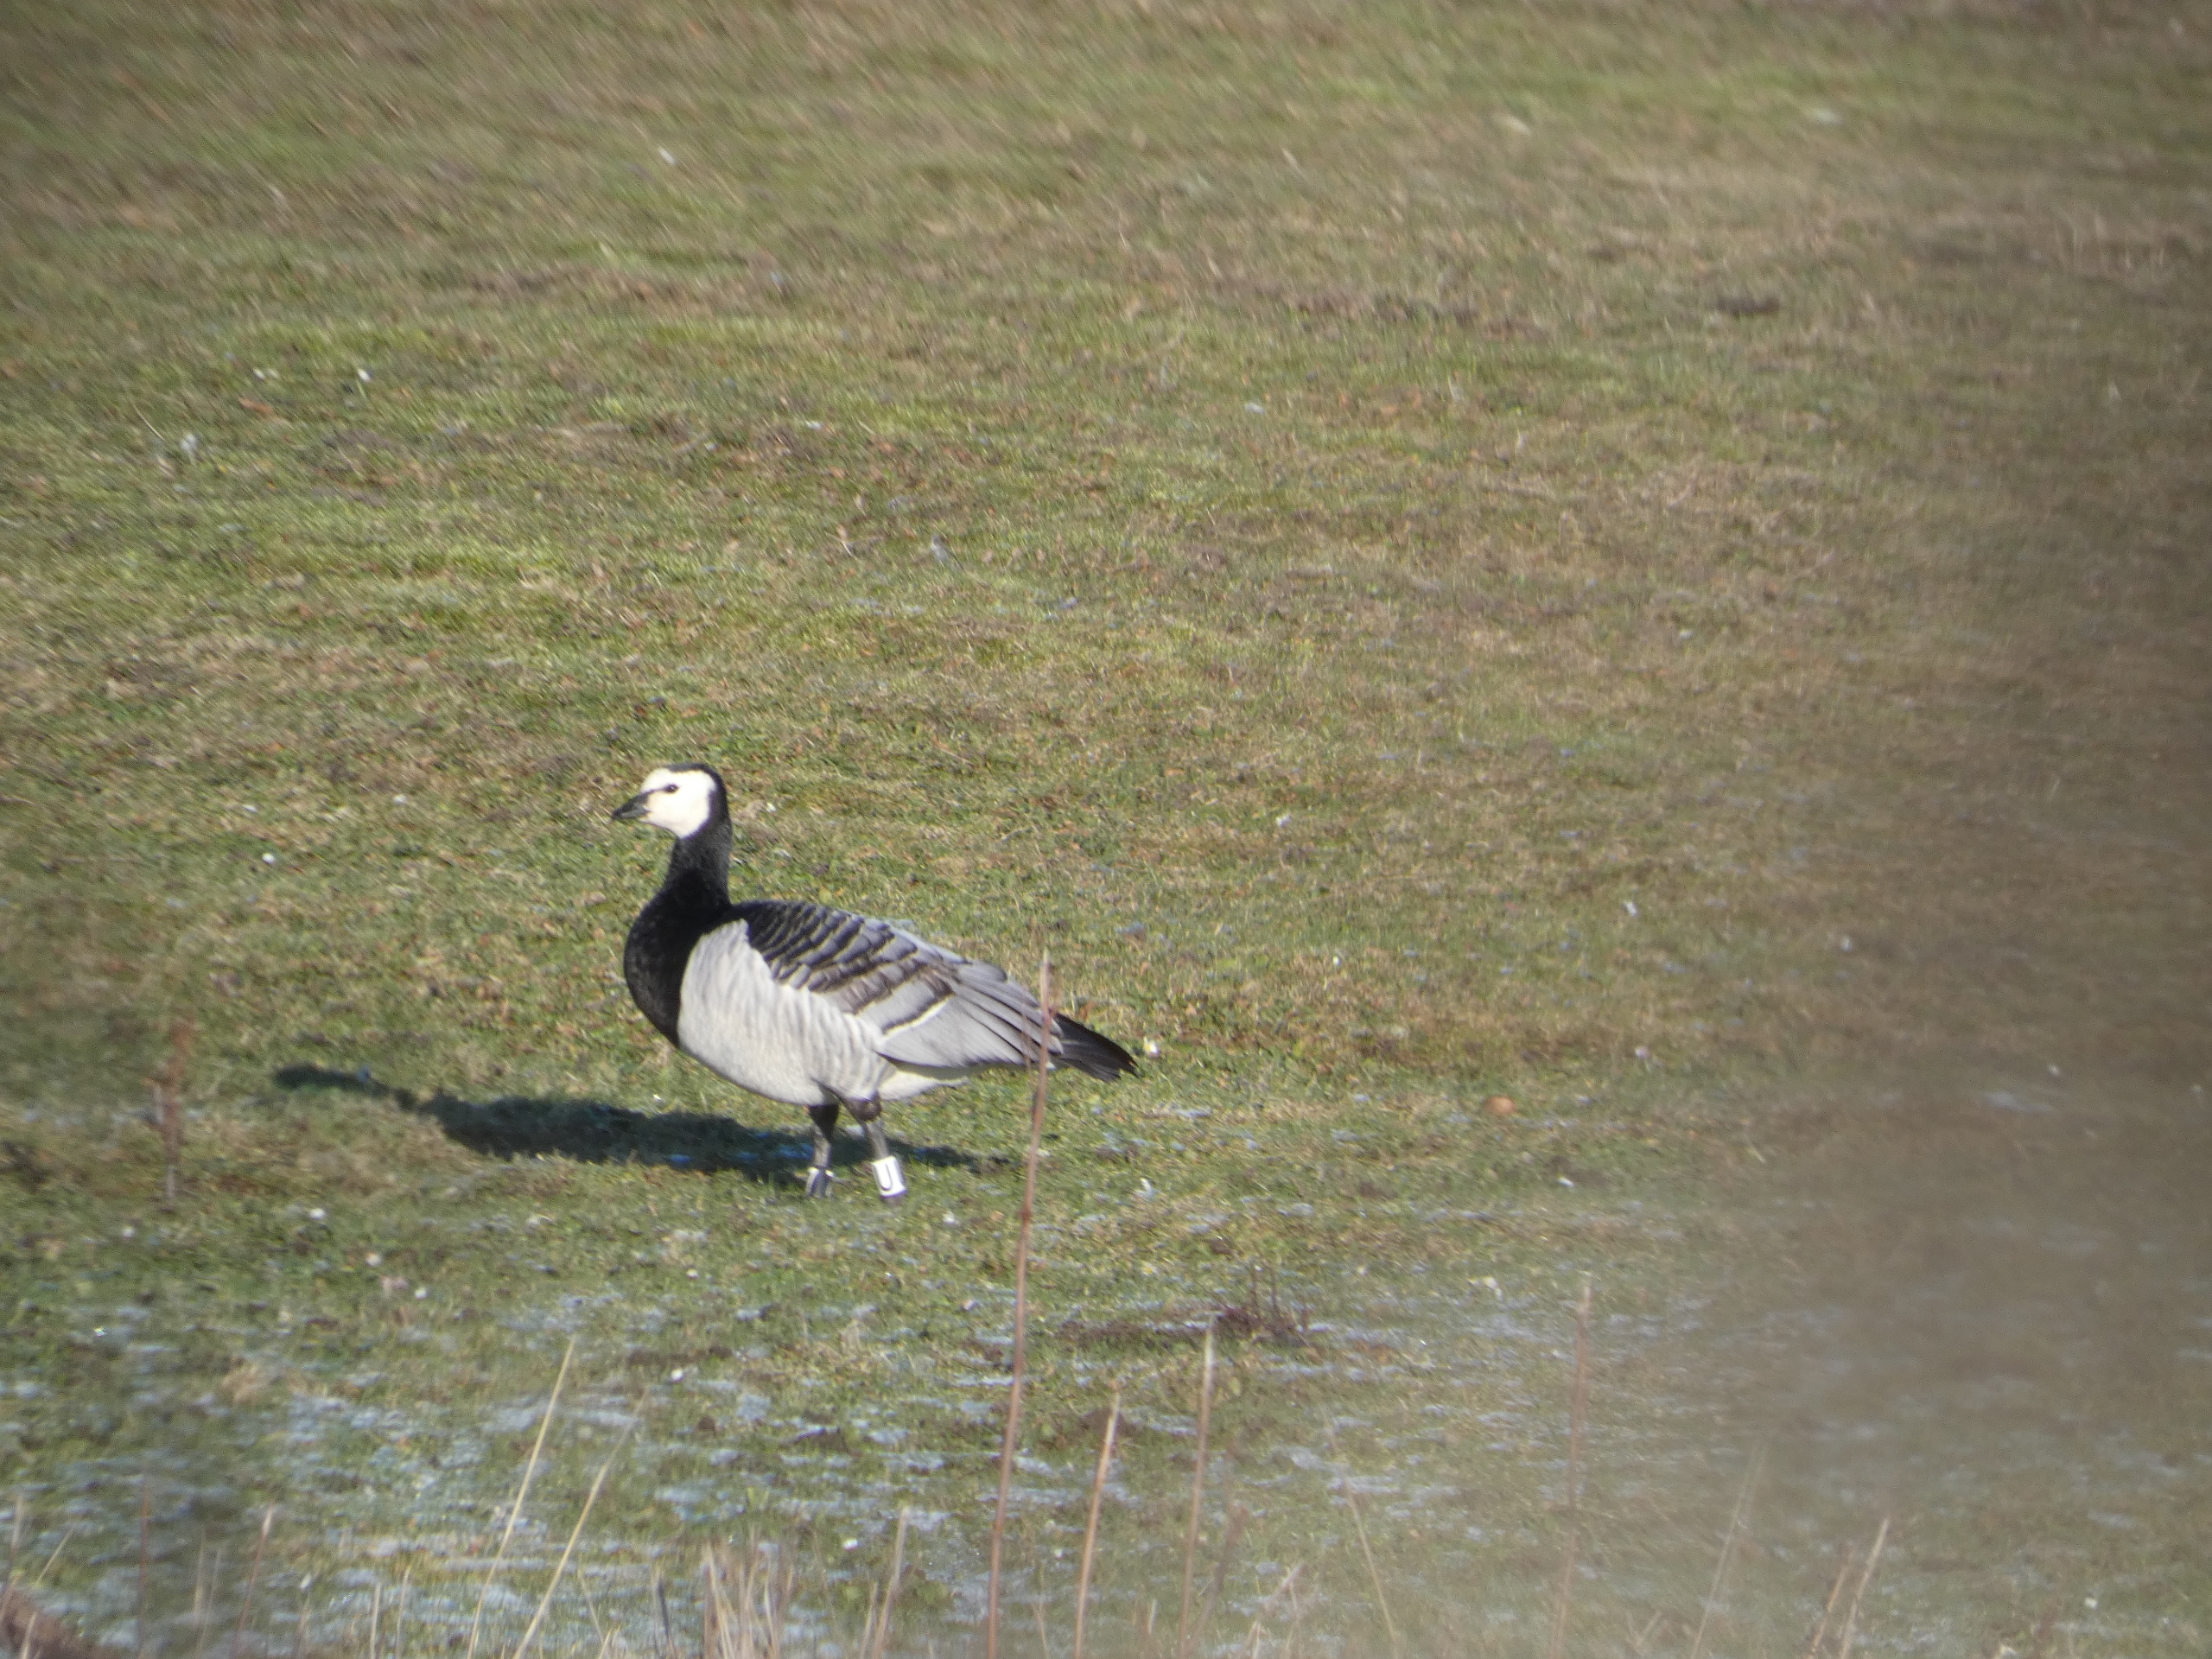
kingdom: Animalia
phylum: Chordata
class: Aves
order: Anseriformes
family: Anatidae
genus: Branta
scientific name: Branta leucopsis
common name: Bramgås
